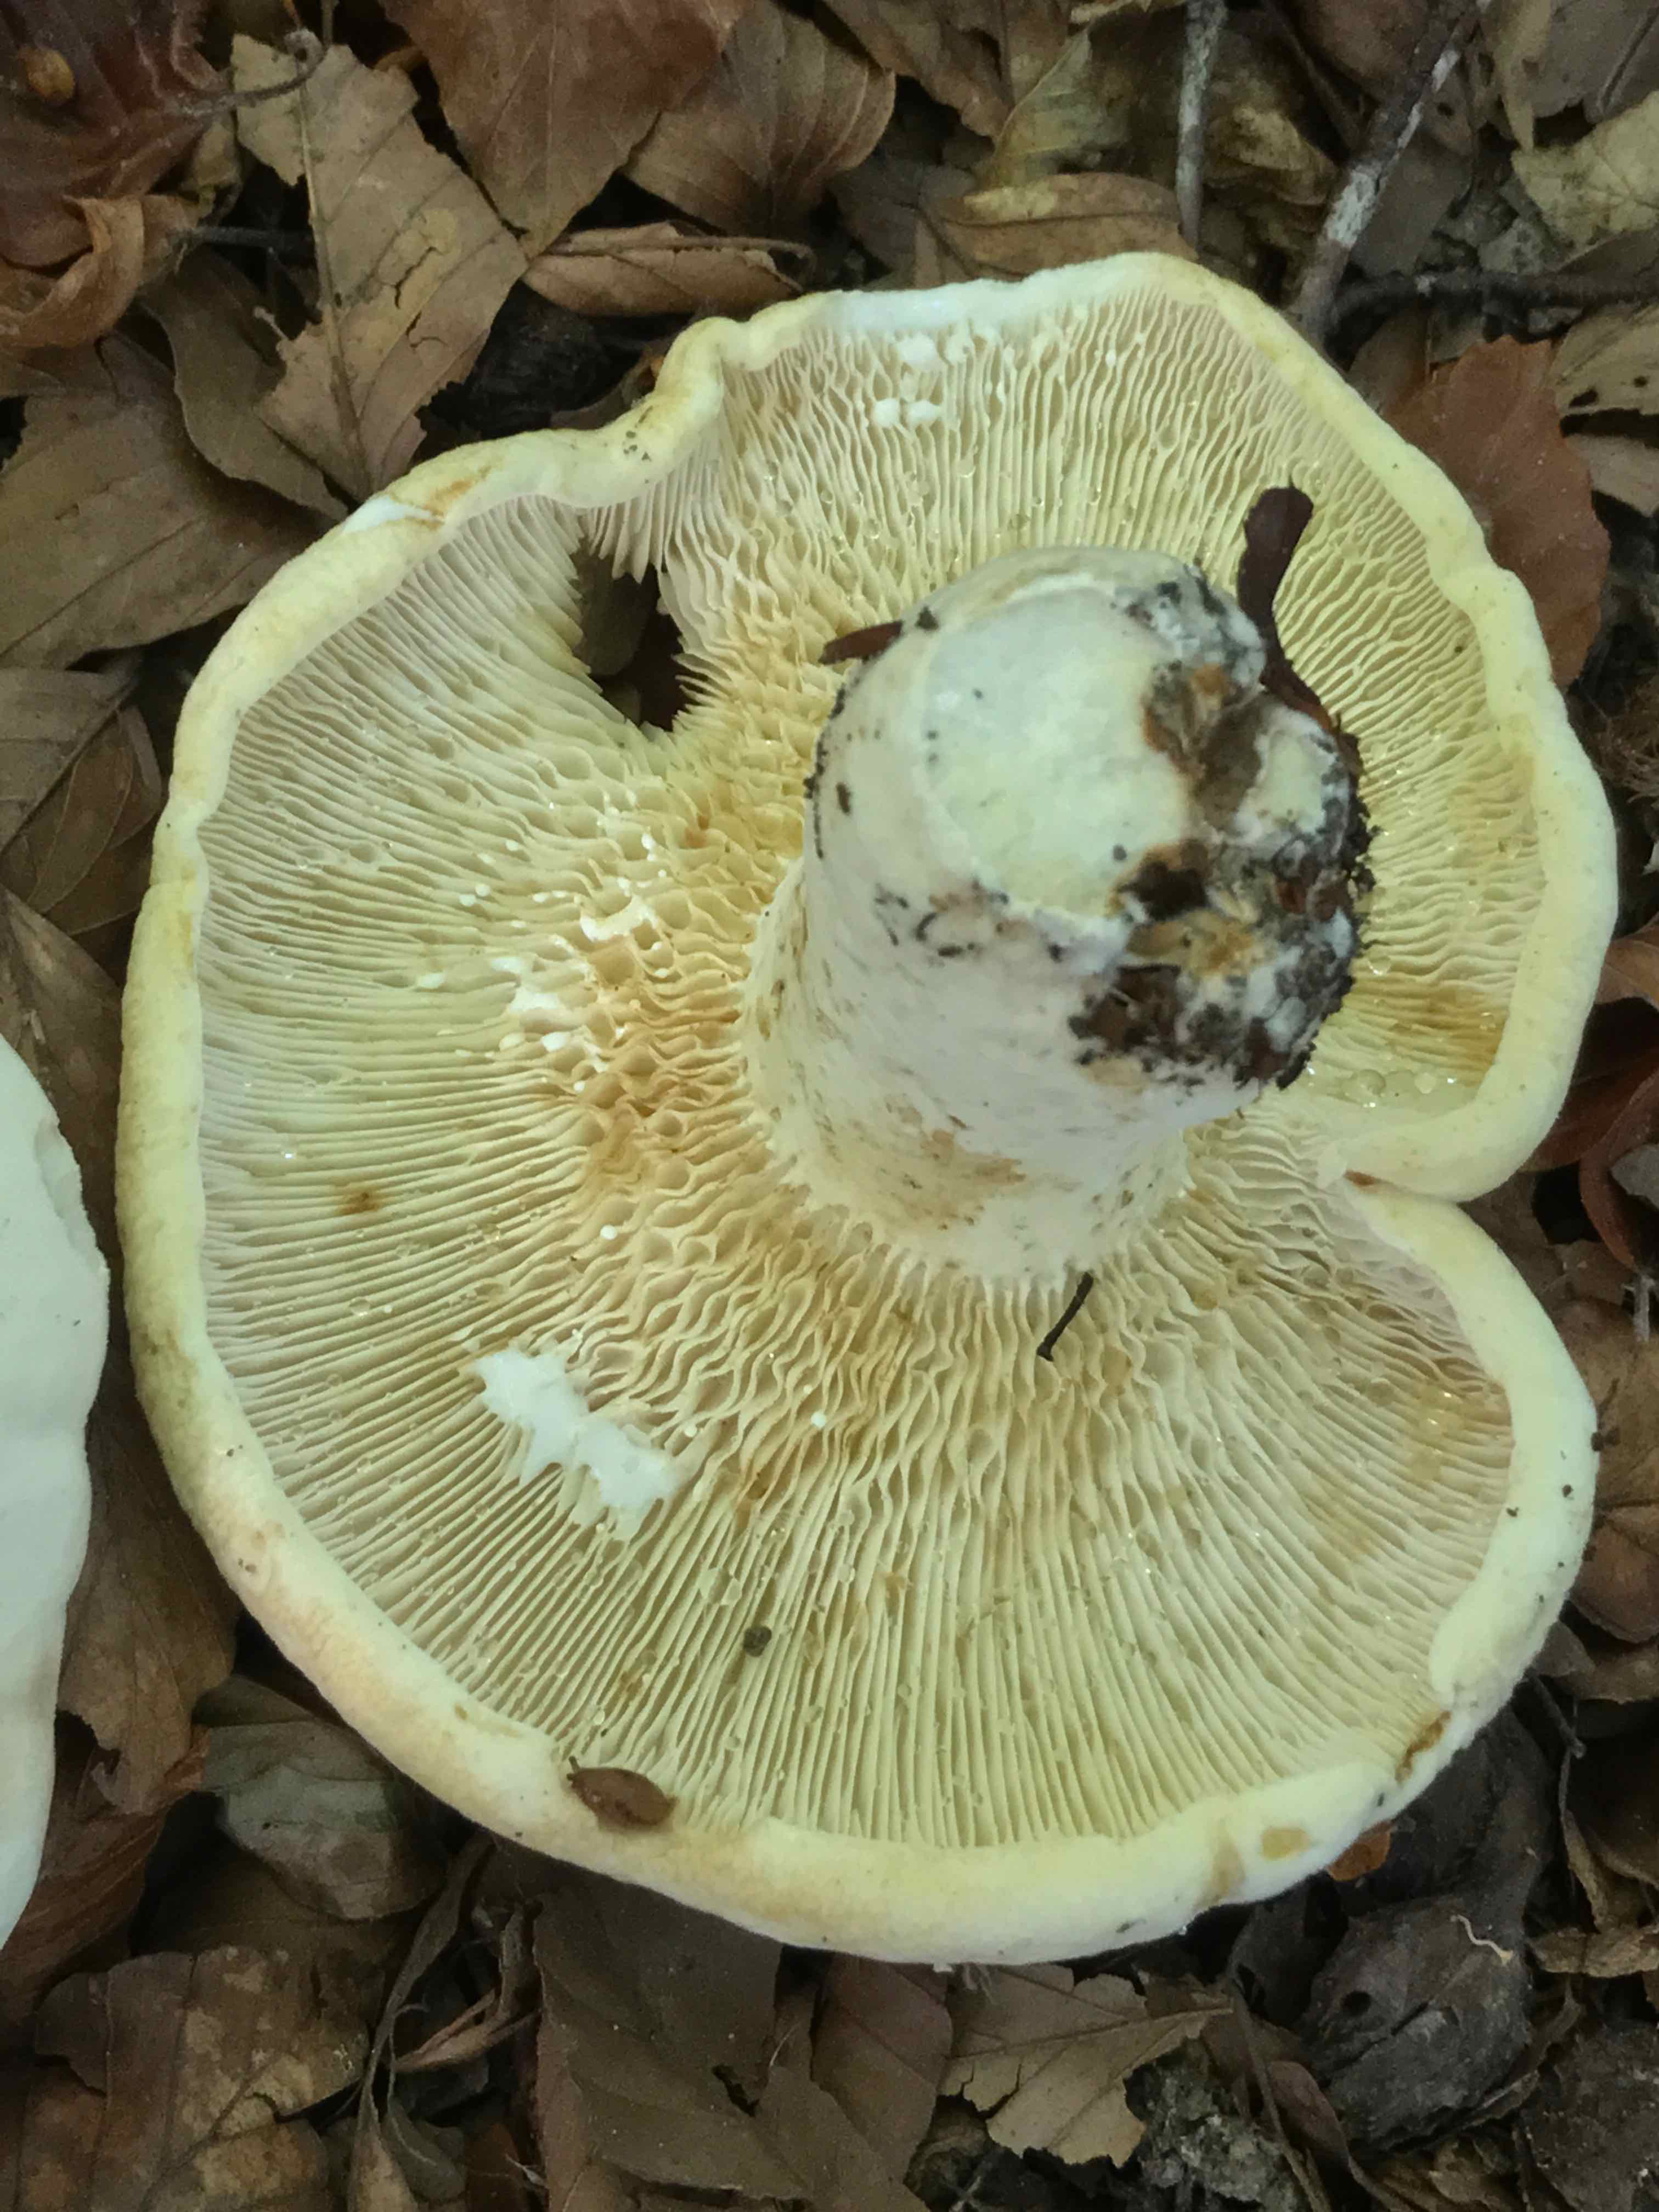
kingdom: Fungi
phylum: Basidiomycota
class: Agaricomycetes
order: Russulales
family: Russulaceae
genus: Lactifluus
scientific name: Lactifluus
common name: mælkehat
